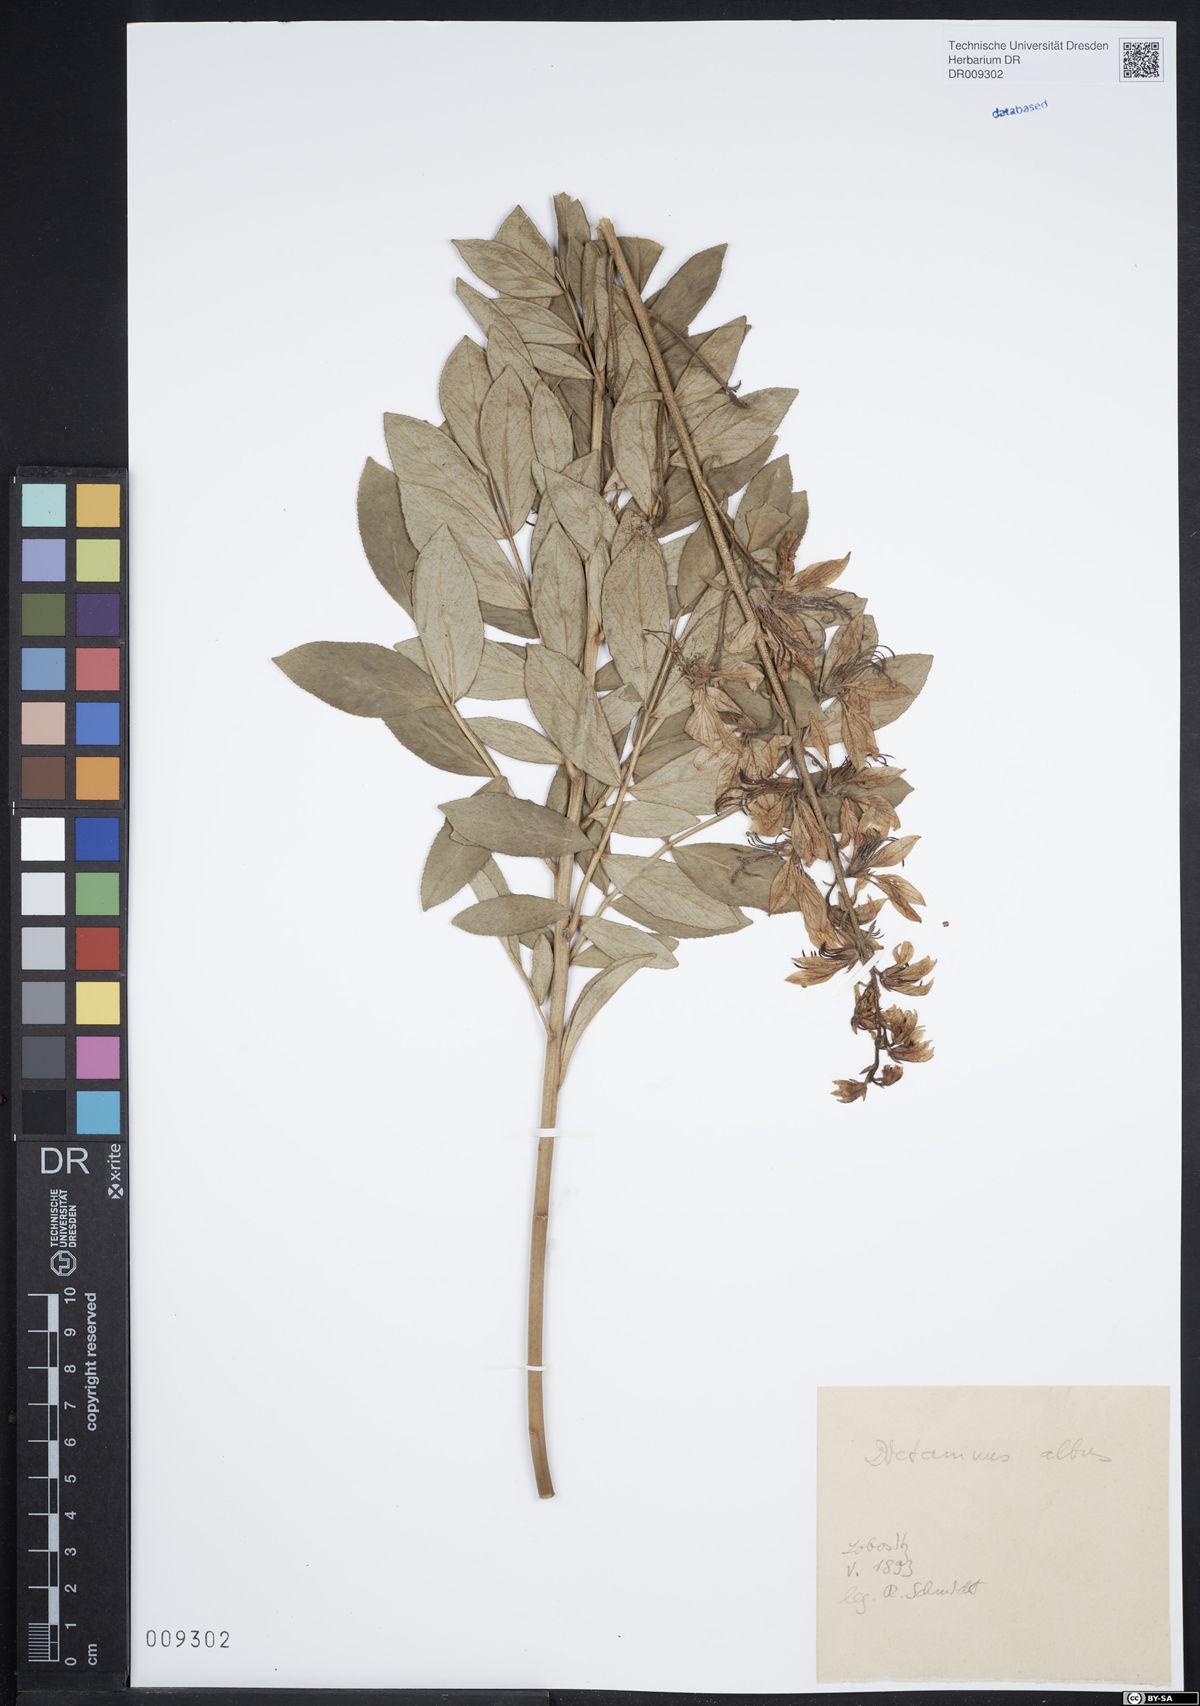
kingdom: Plantae
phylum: Tracheophyta
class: Magnoliopsida
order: Sapindales
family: Rutaceae
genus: Dictamnus
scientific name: Dictamnus albus
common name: Gasplant
